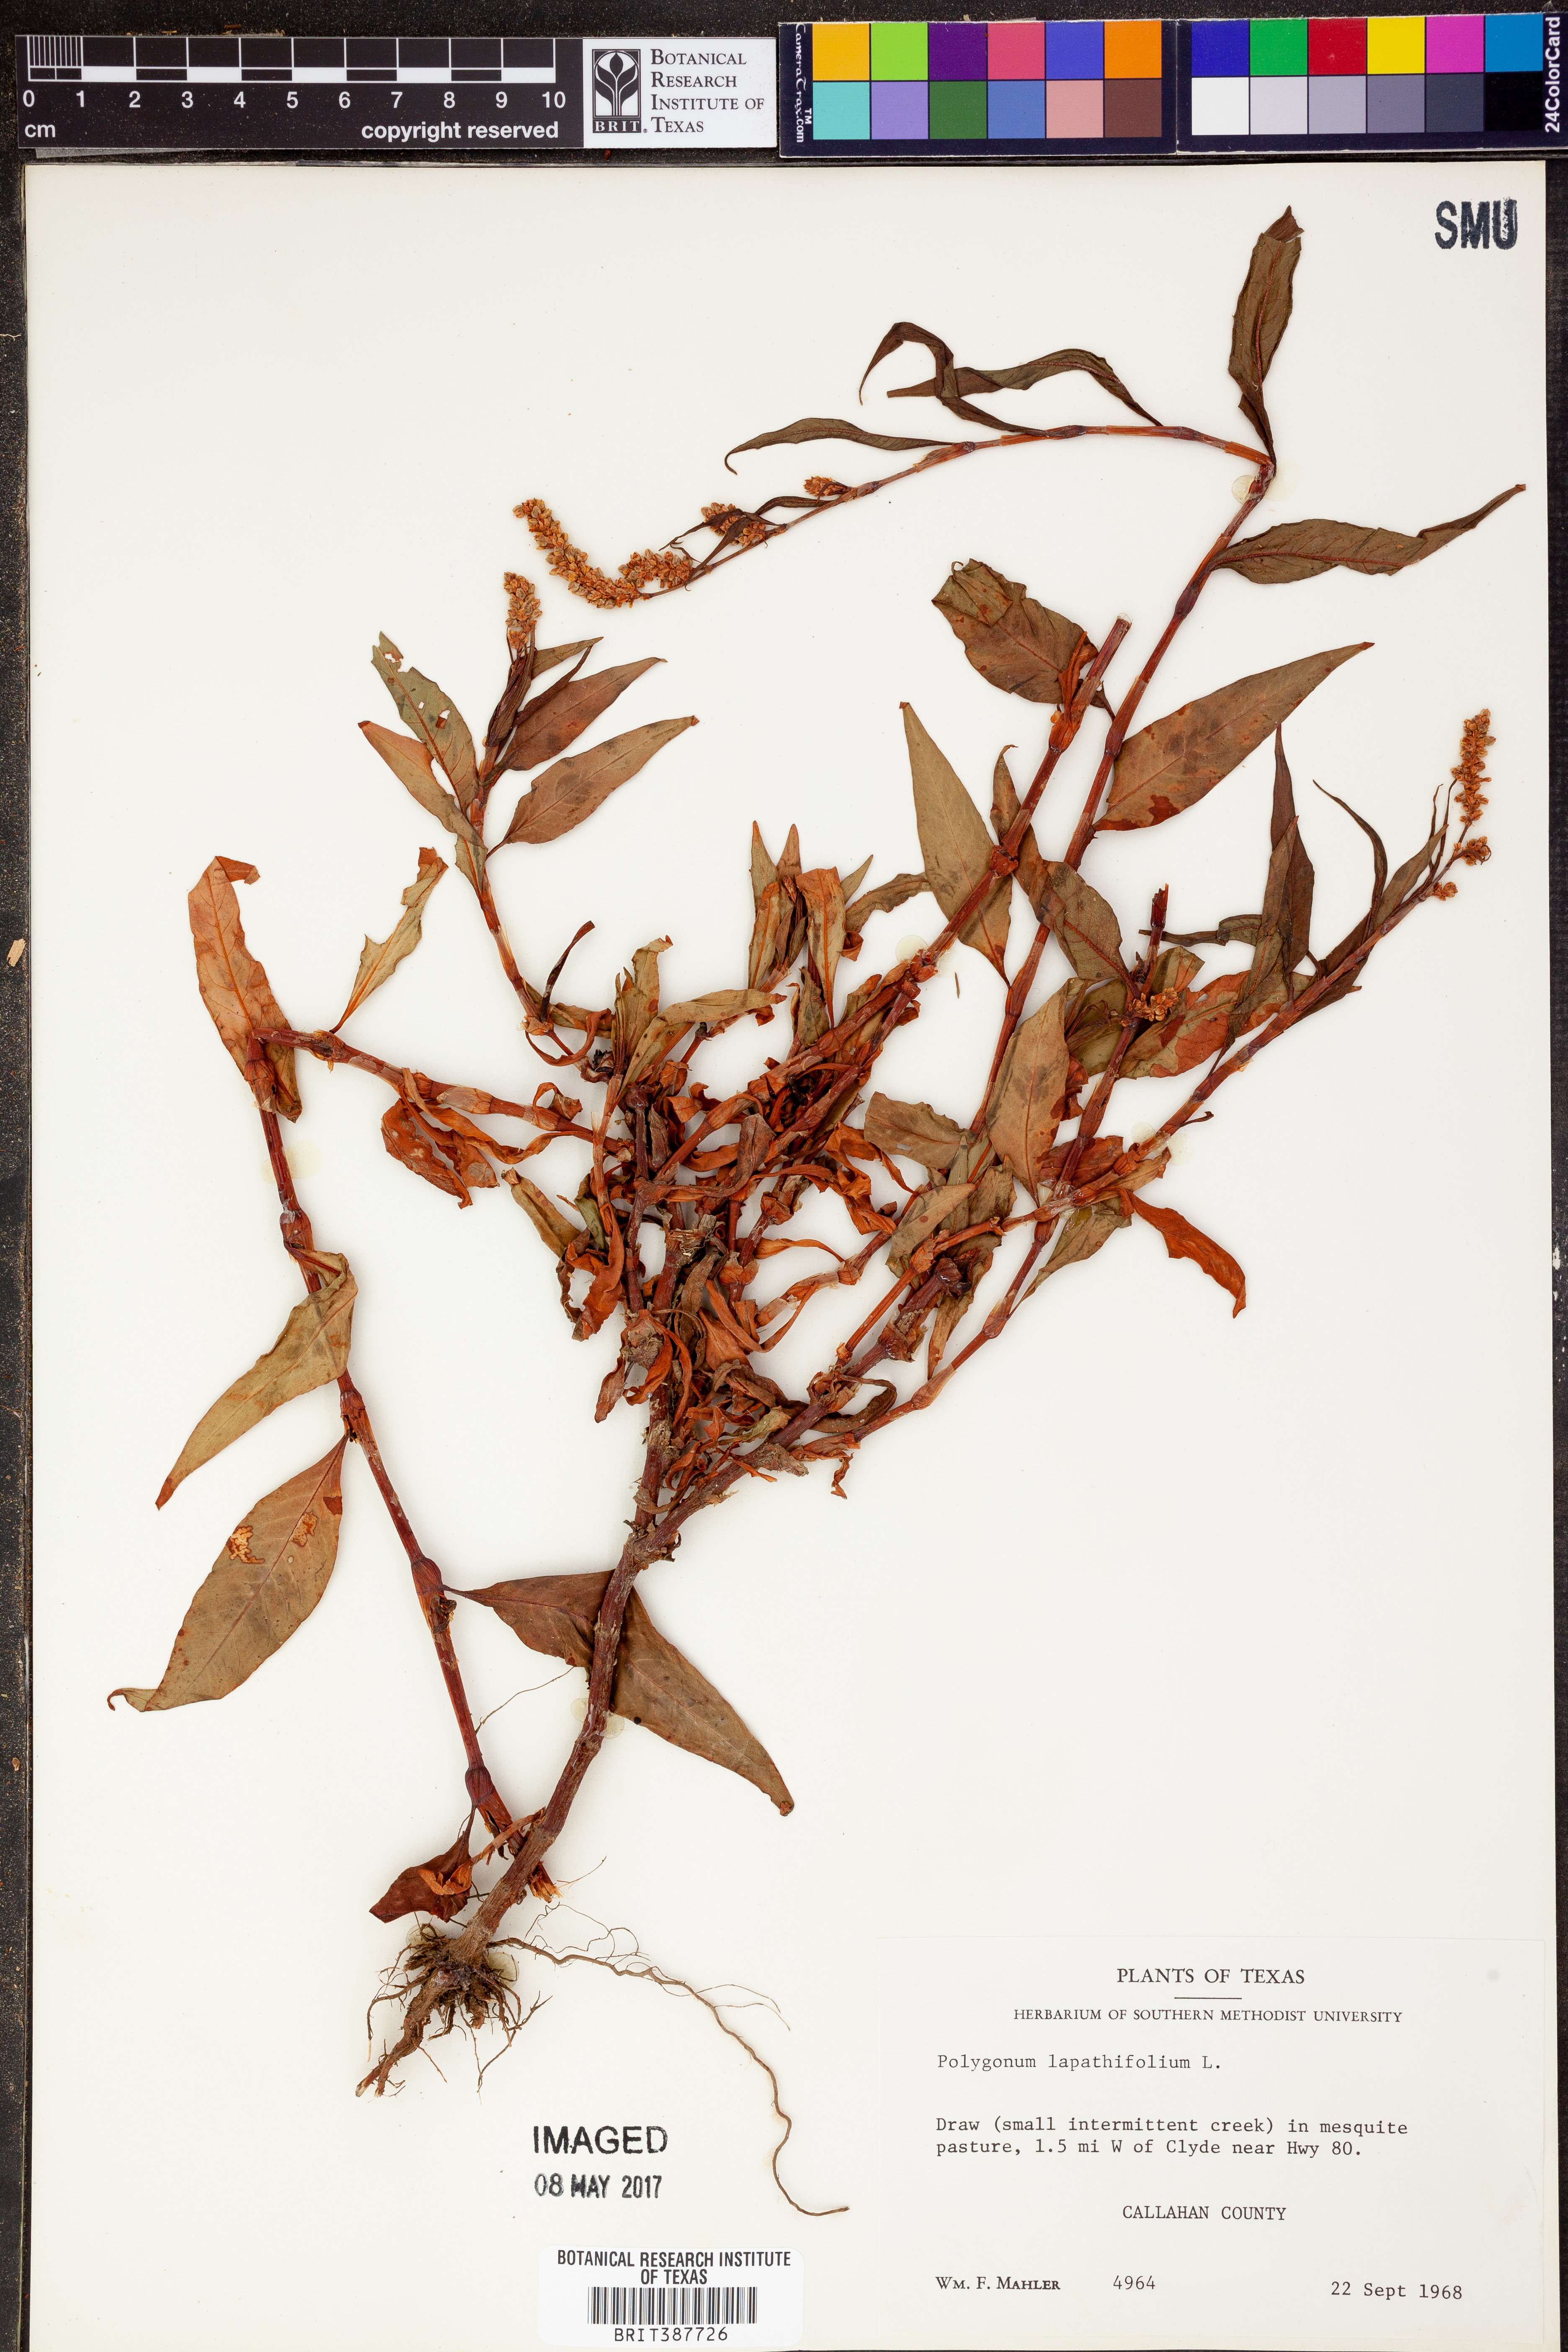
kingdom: Plantae
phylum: Tracheophyta
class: Magnoliopsida
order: Caryophyllales
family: Polygonaceae
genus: Persicaria
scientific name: Persicaria lapathifolia
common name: Curlytop knotweed
